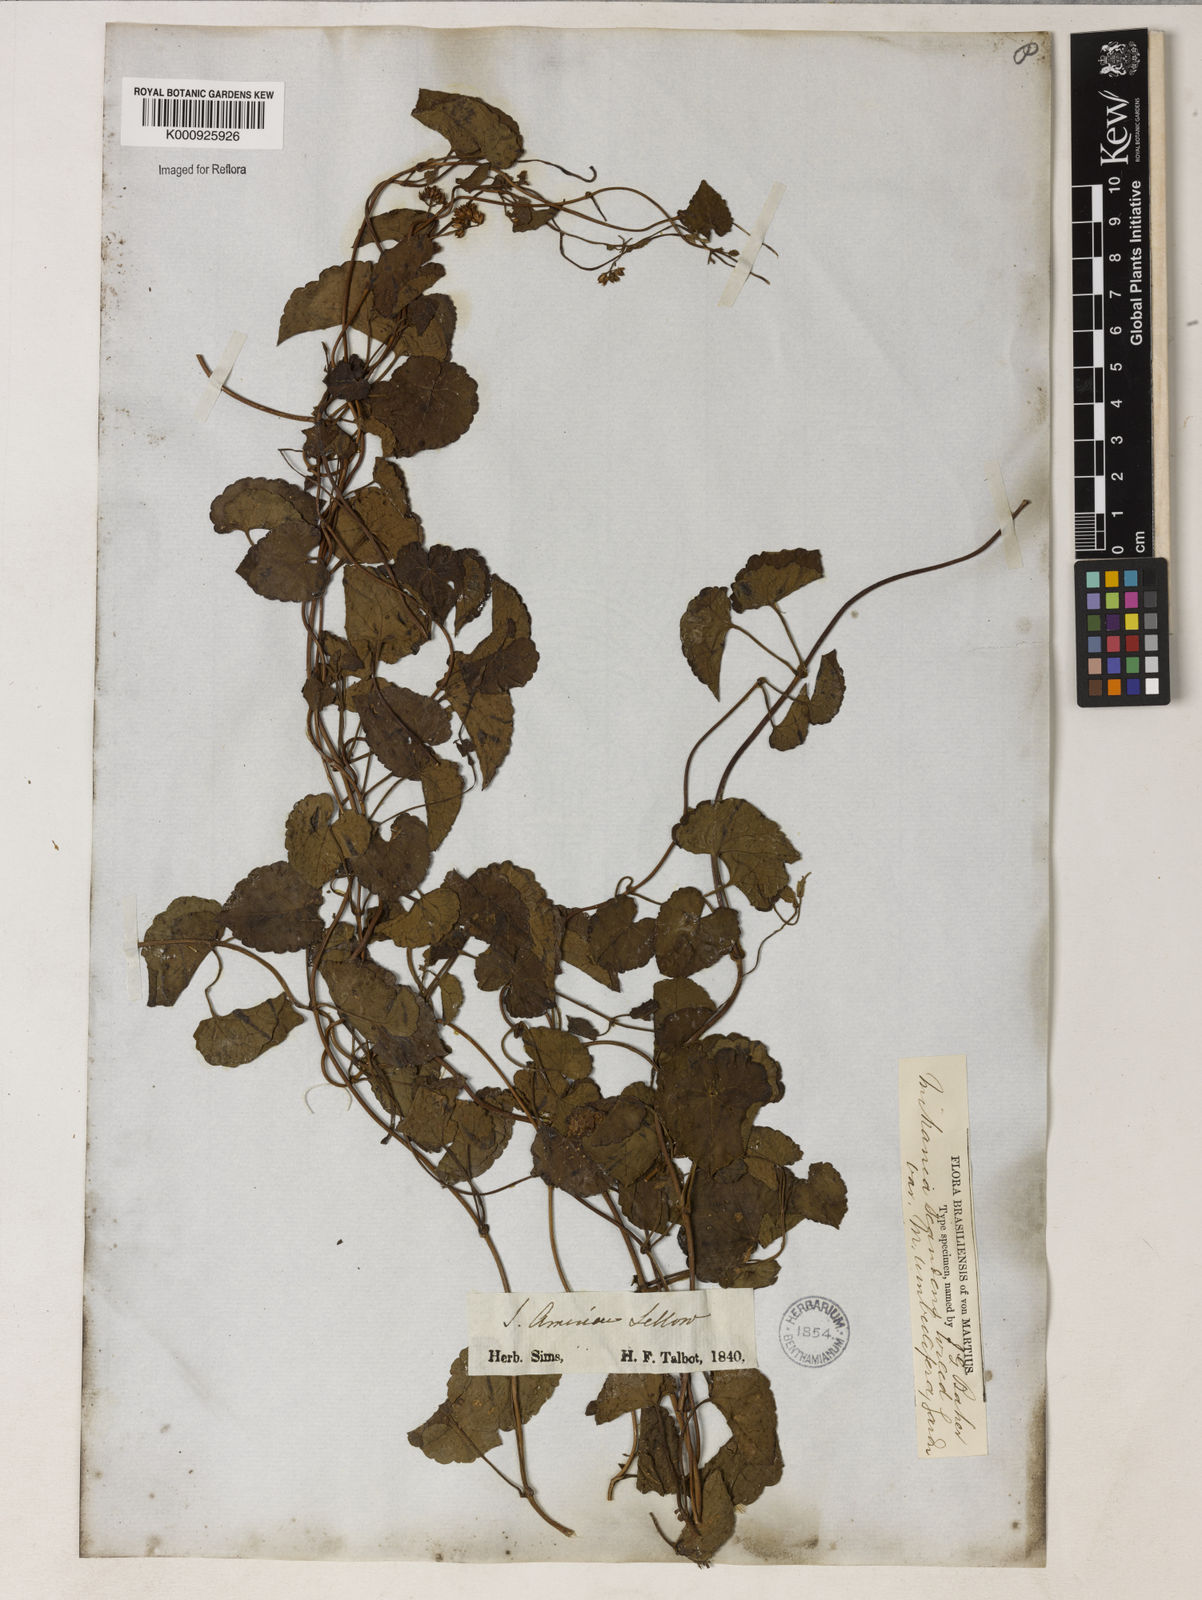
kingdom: Plantae
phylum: Tracheophyta
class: Magnoliopsida
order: Asterales
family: Asteraceae
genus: Mikania
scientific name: Mikania micrantha
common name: Mile-a-minute
